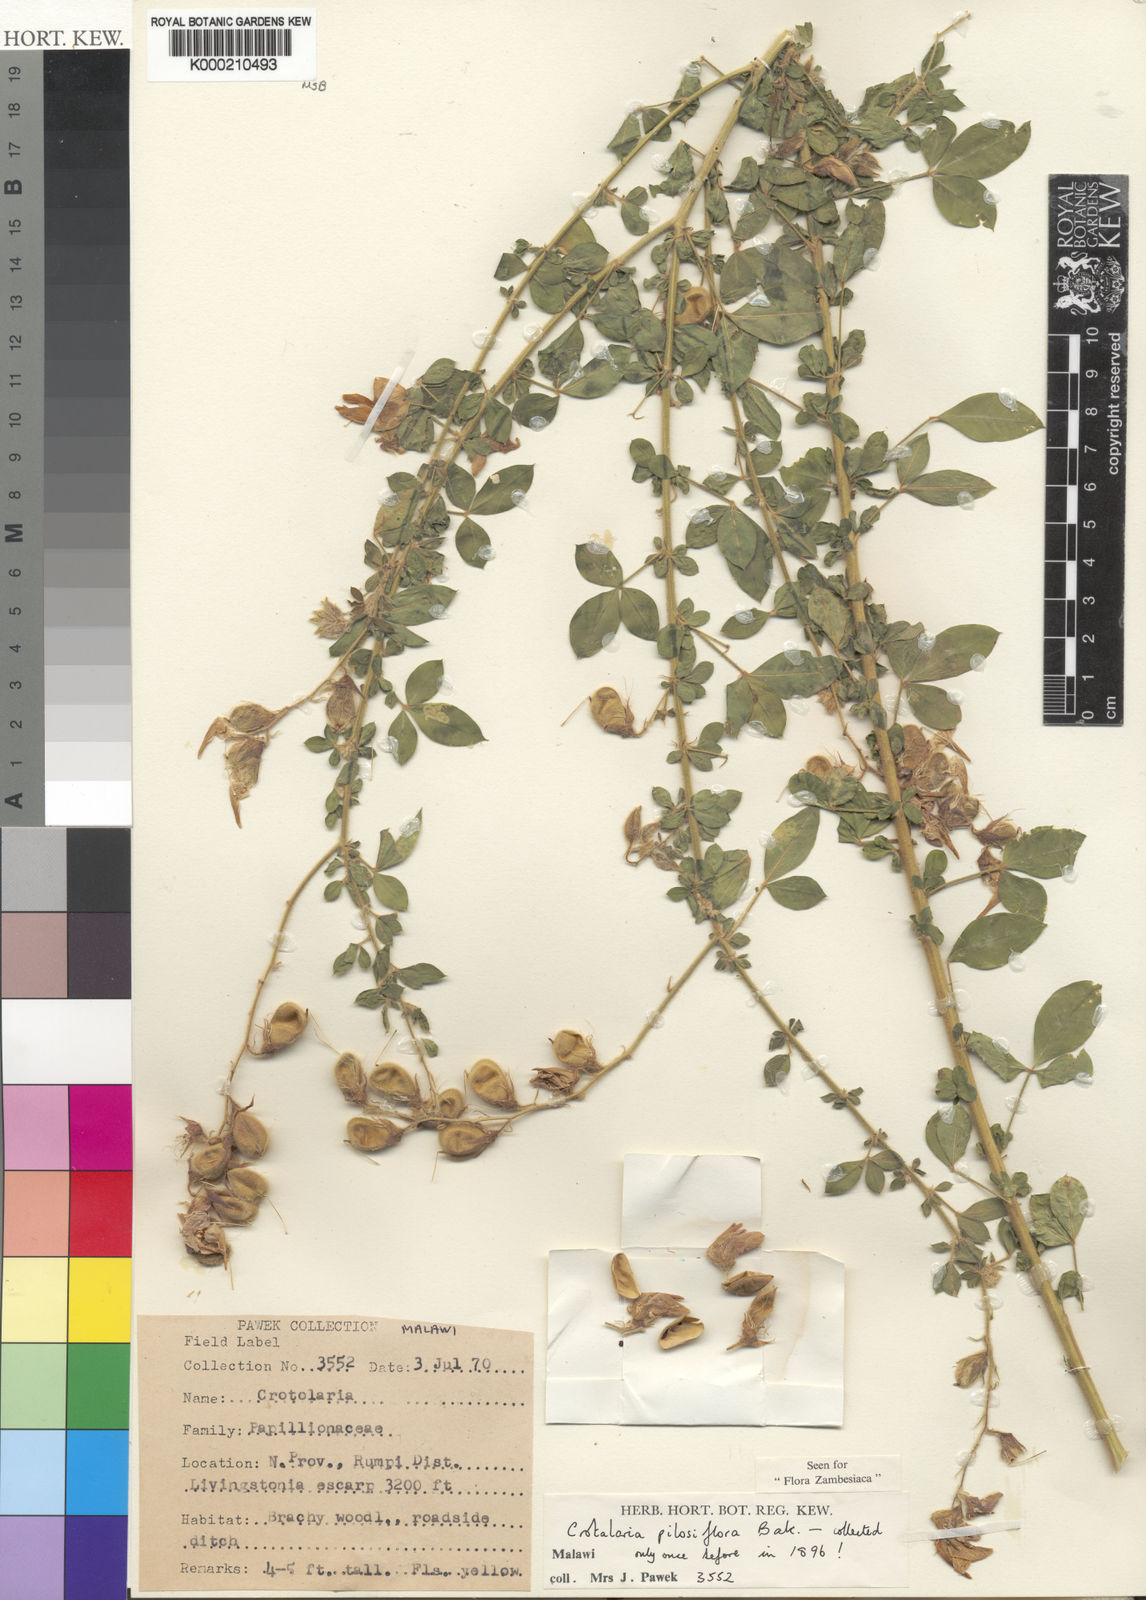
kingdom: Plantae
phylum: Tracheophyta
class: Magnoliopsida
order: Fabales
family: Fabaceae
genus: Crotalaria
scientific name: Crotalaria pilosiflora
